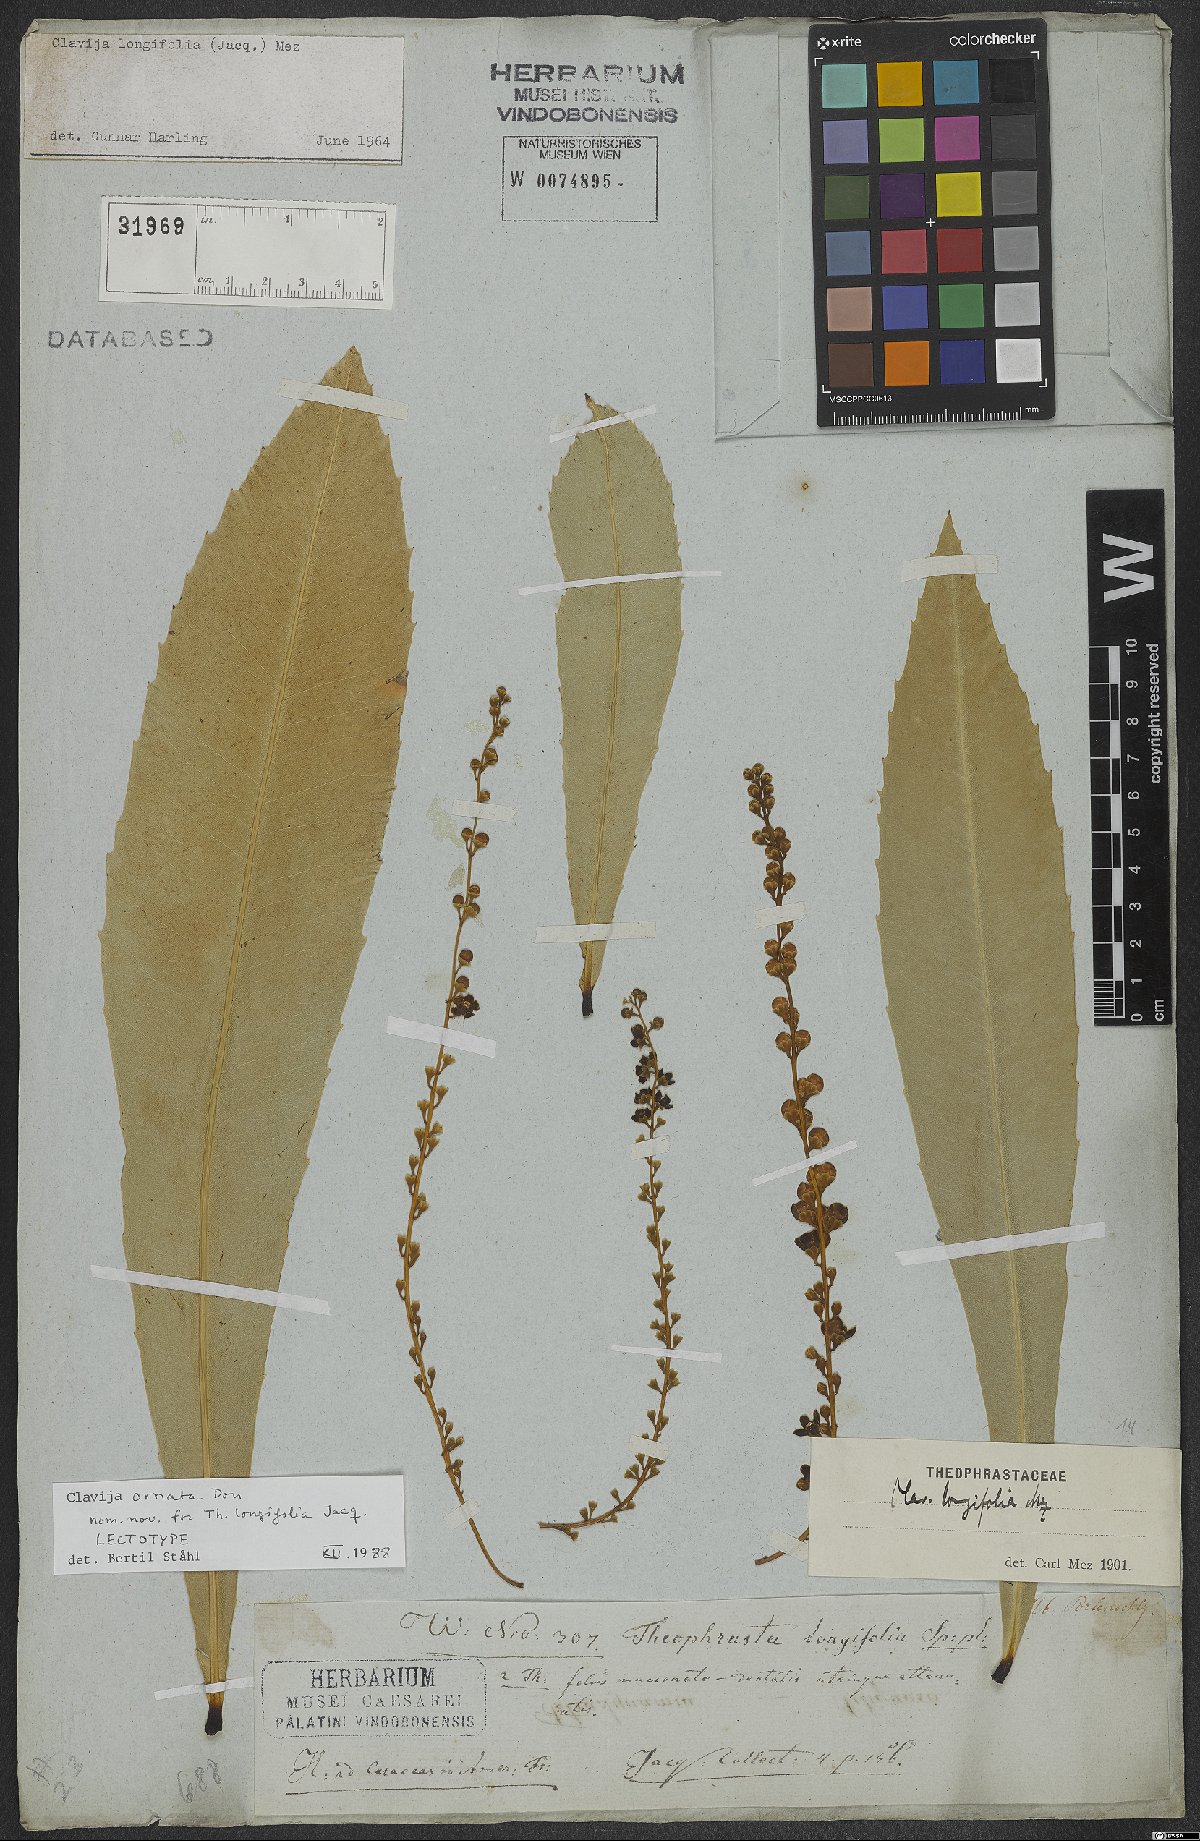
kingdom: Plantae
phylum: Tracheophyta
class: Magnoliopsida
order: Ericales
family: Primulaceae
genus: Clavija
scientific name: Clavija ornata
